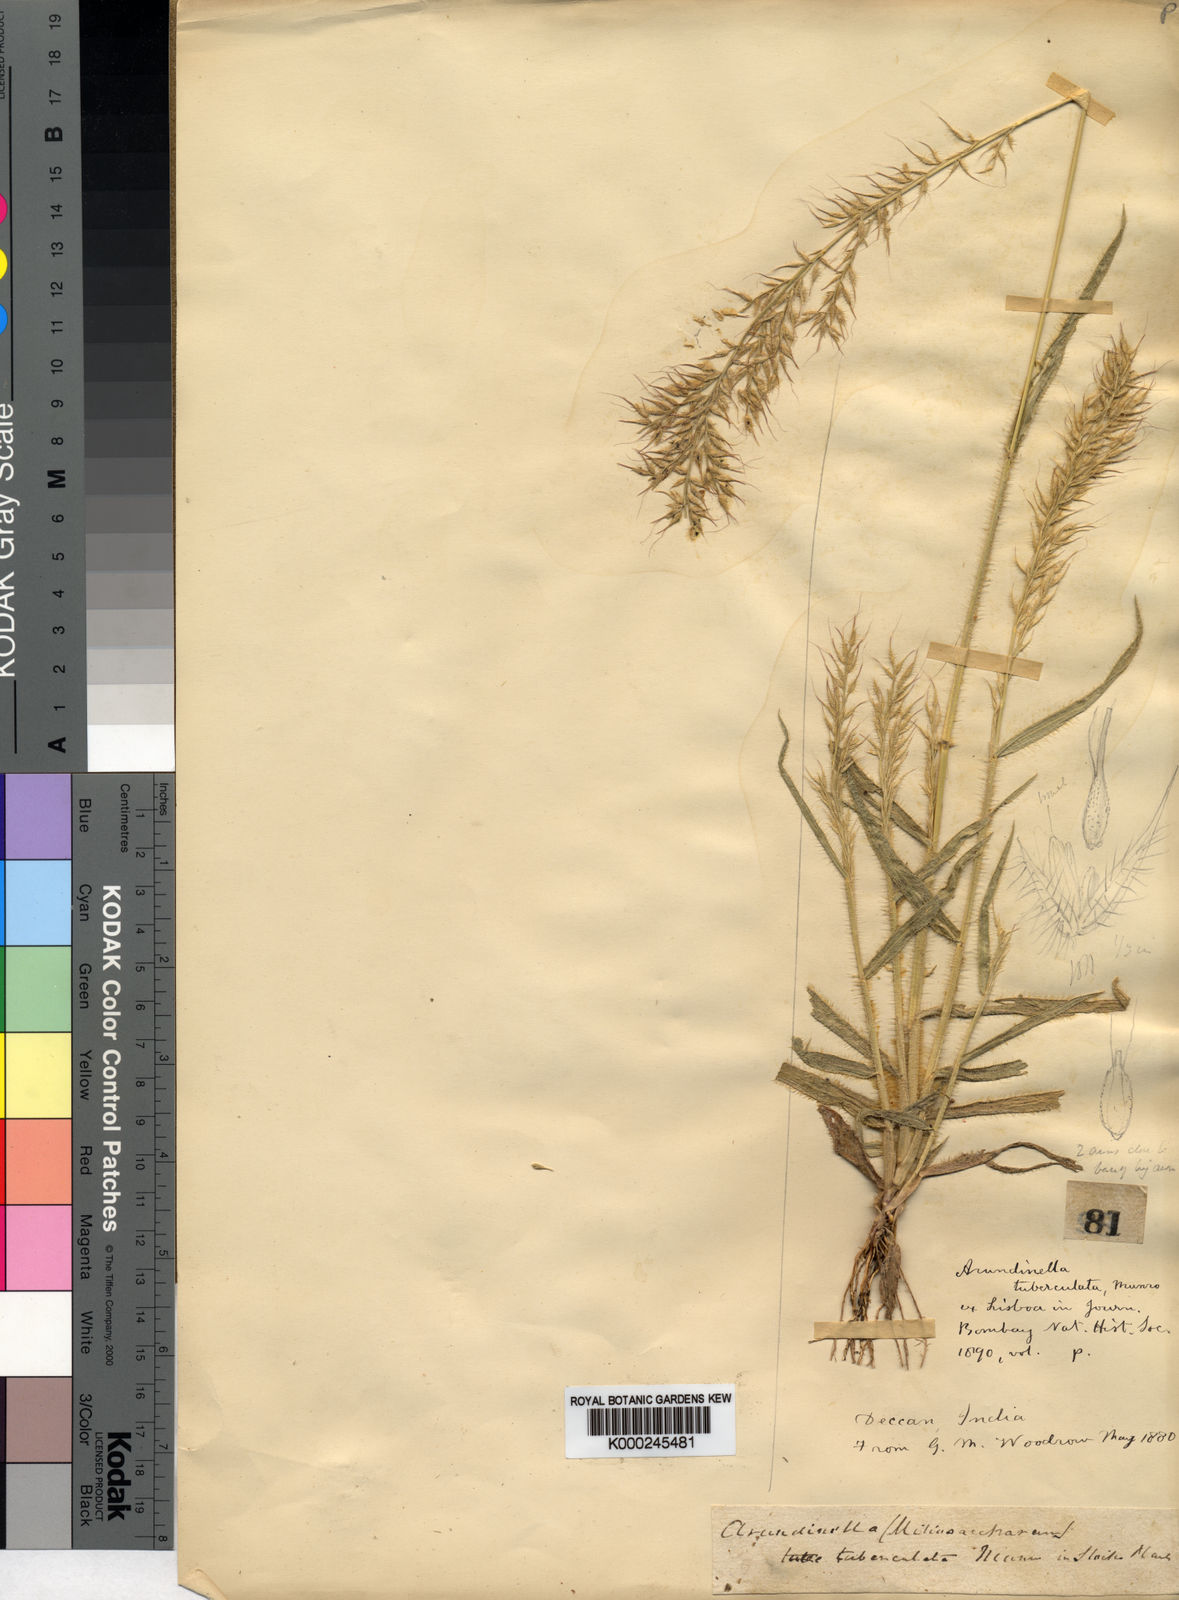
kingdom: Plantae
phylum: Tracheophyta
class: Liliopsida
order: Poales
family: Poaceae
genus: Arundinella
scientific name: Arundinella tuberculata
